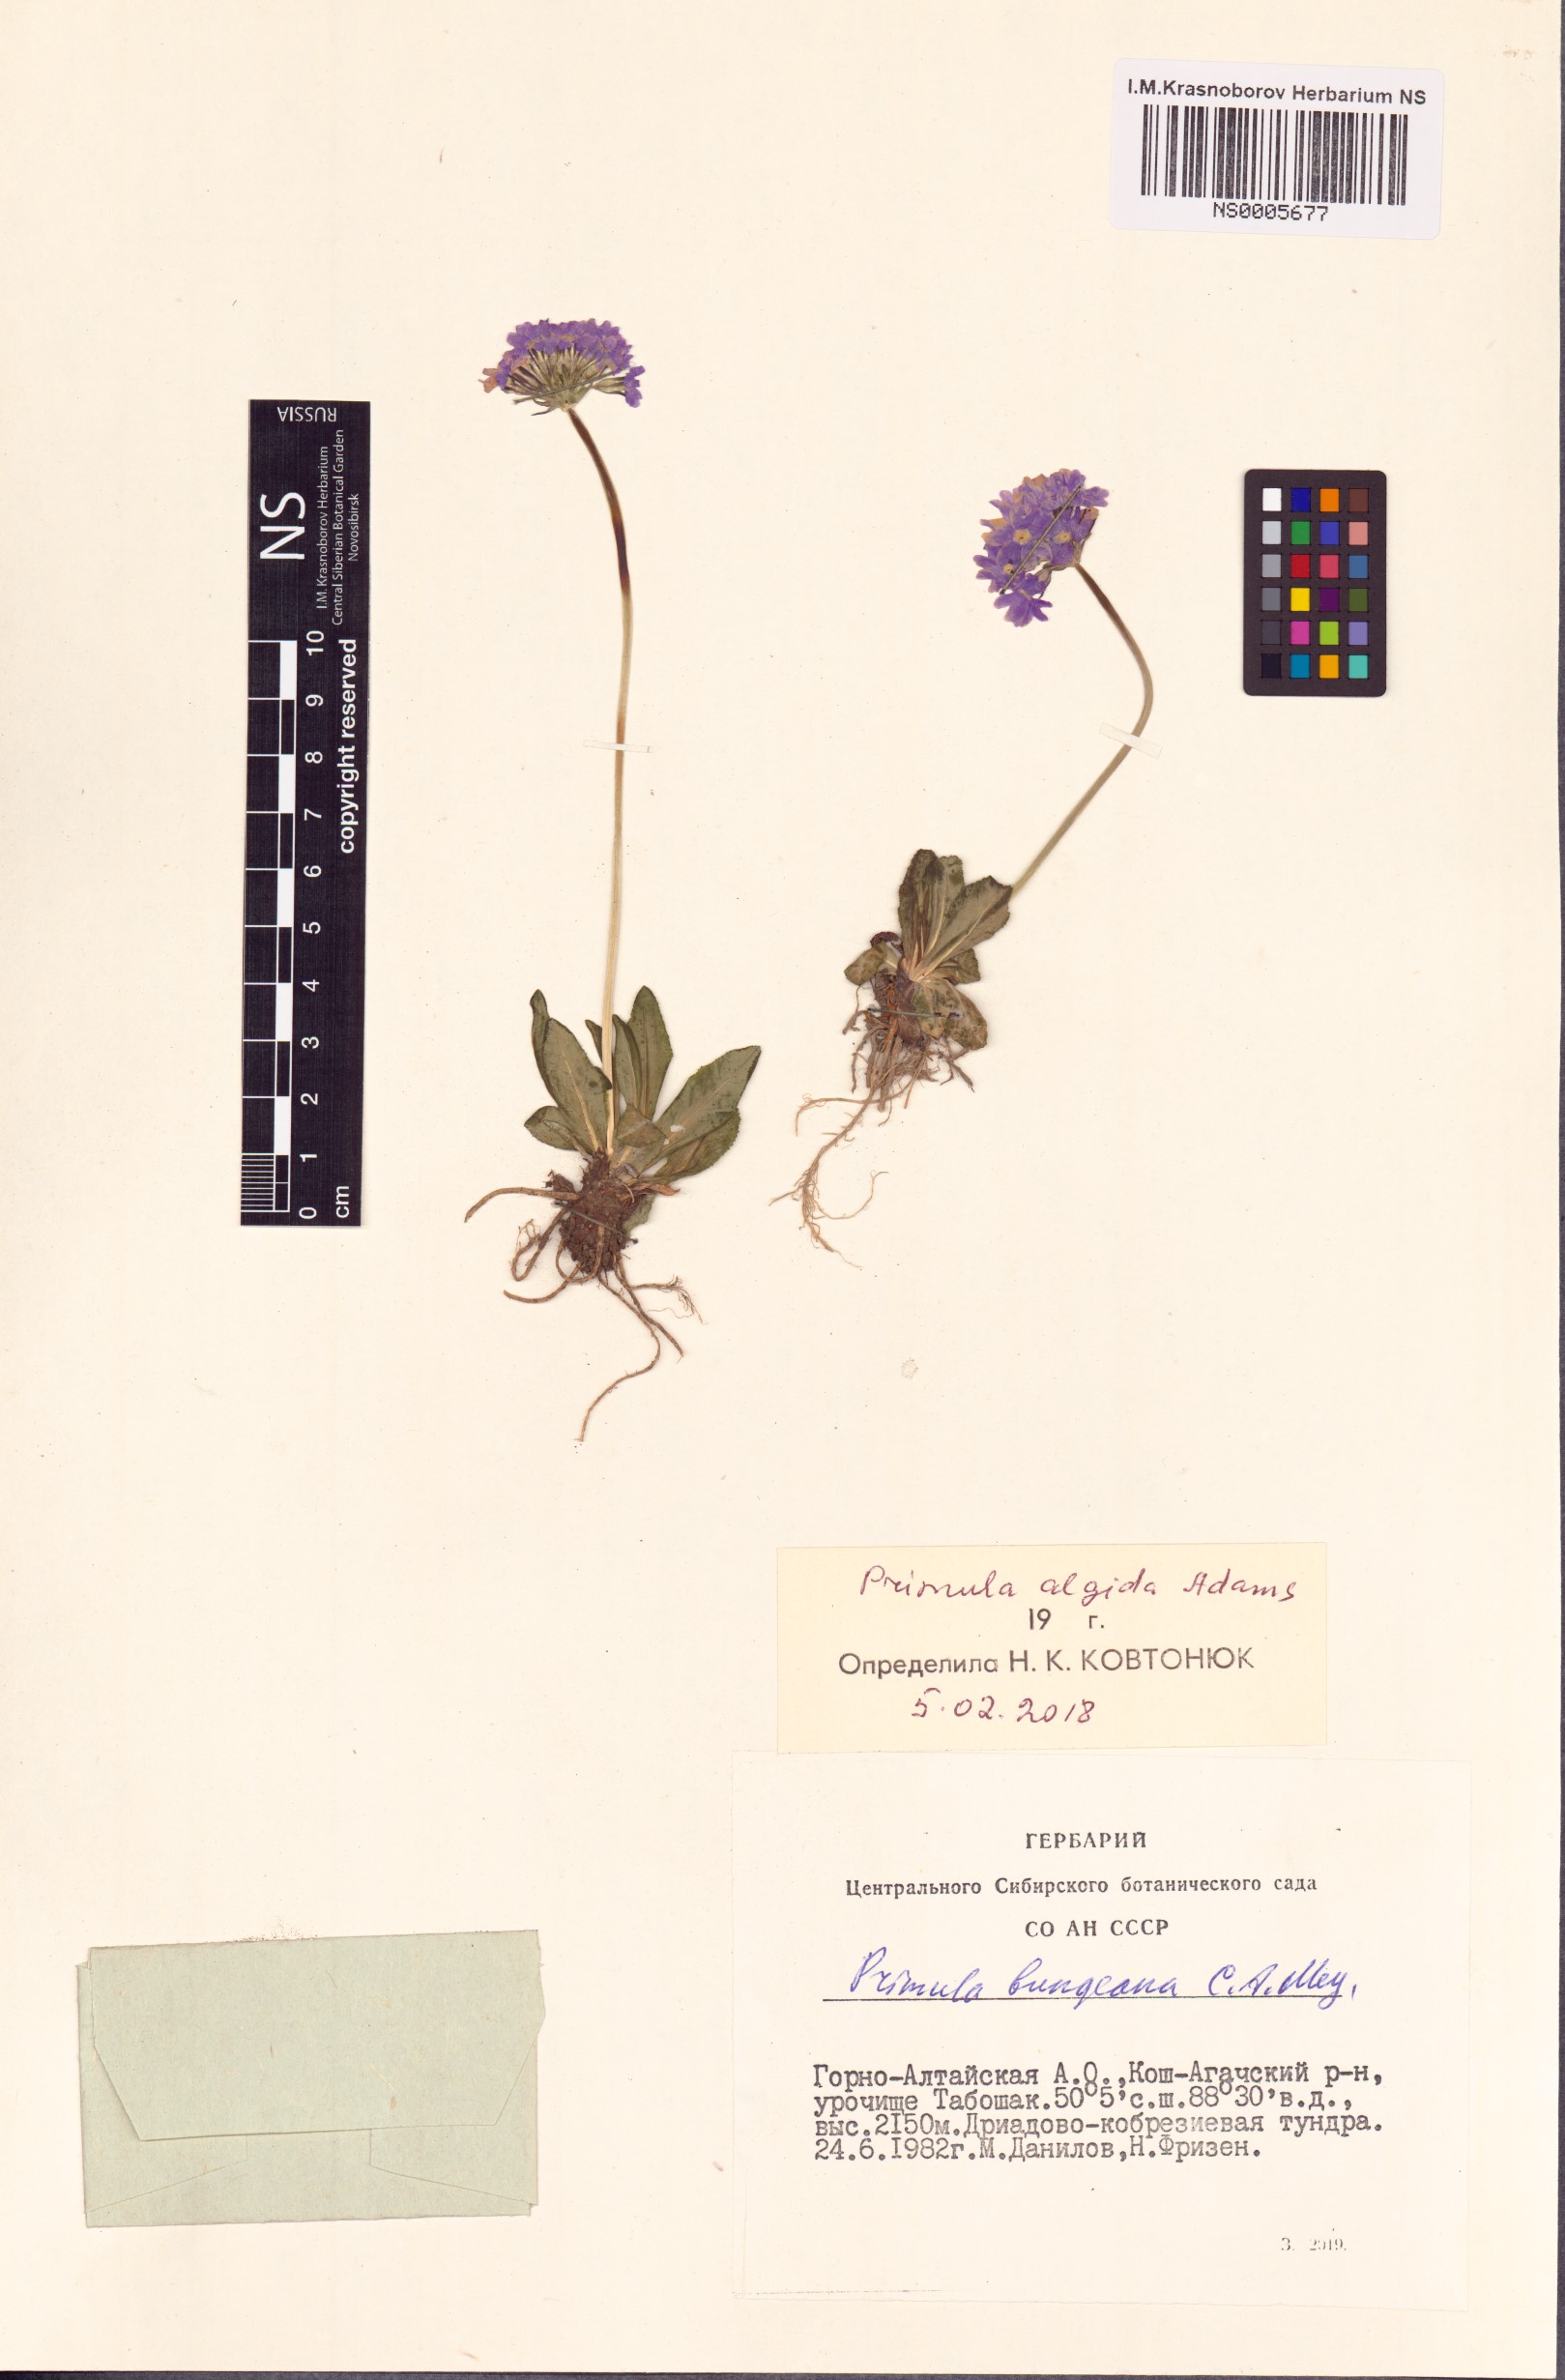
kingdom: Plantae
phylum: Tracheophyta
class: Magnoliopsida
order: Ericales
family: Primulaceae
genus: Primula
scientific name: Primula algida
